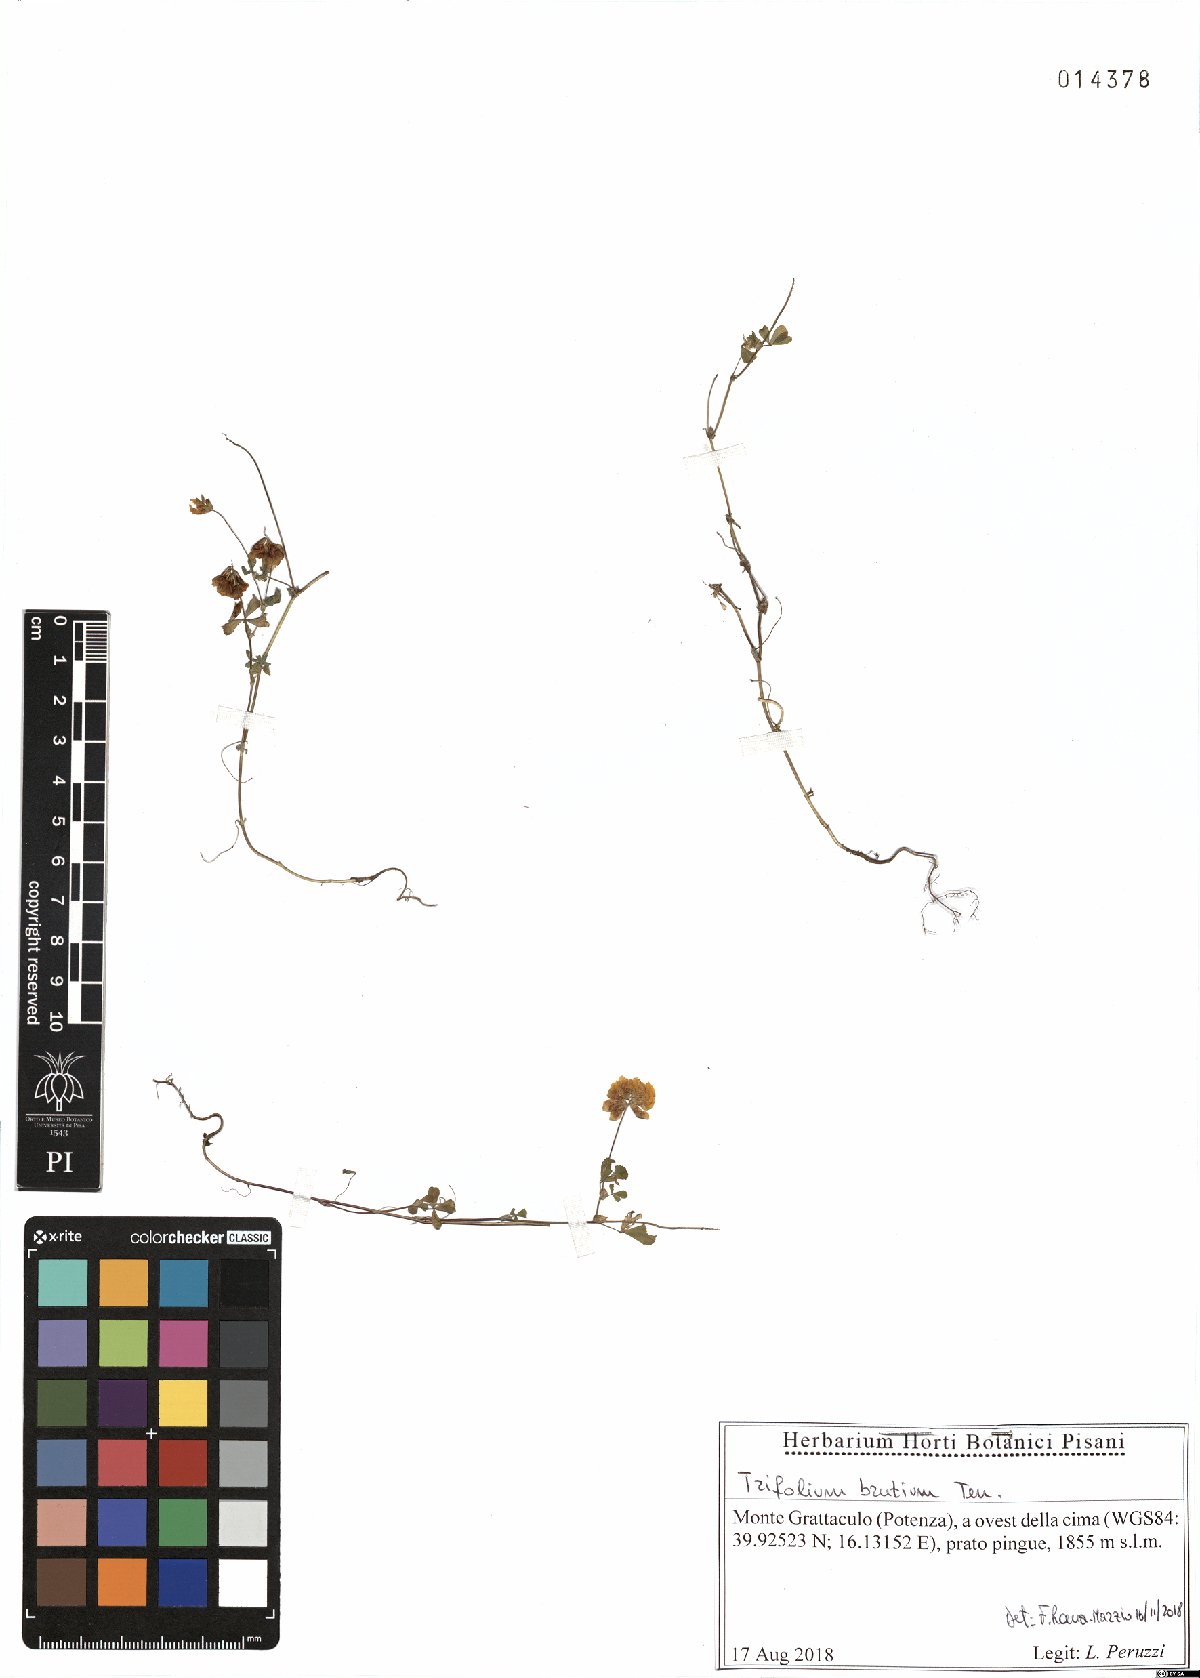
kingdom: Plantae
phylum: Tracheophyta
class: Magnoliopsida
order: Fabales
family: Fabaceae
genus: Trifolium
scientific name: Trifolium brutium
